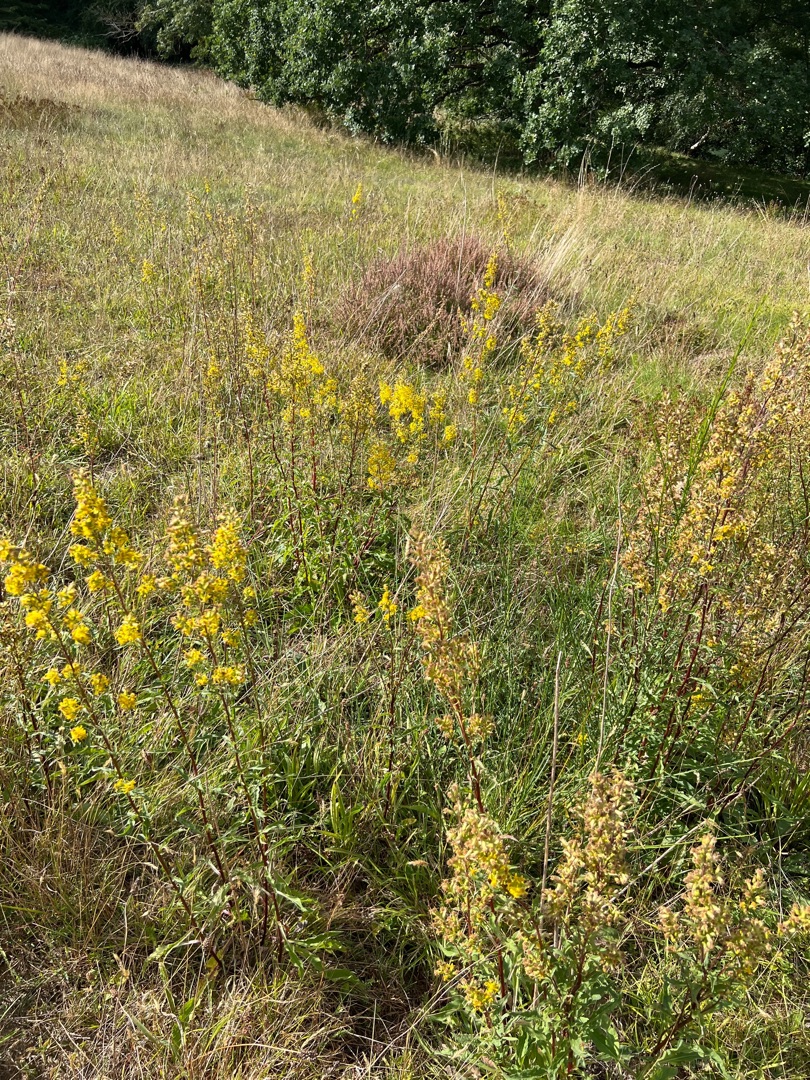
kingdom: Plantae
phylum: Tracheophyta
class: Magnoliopsida
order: Asterales
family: Asteraceae
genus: Solidago
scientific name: Solidago virgaurea
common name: Almindelig gyldenris
